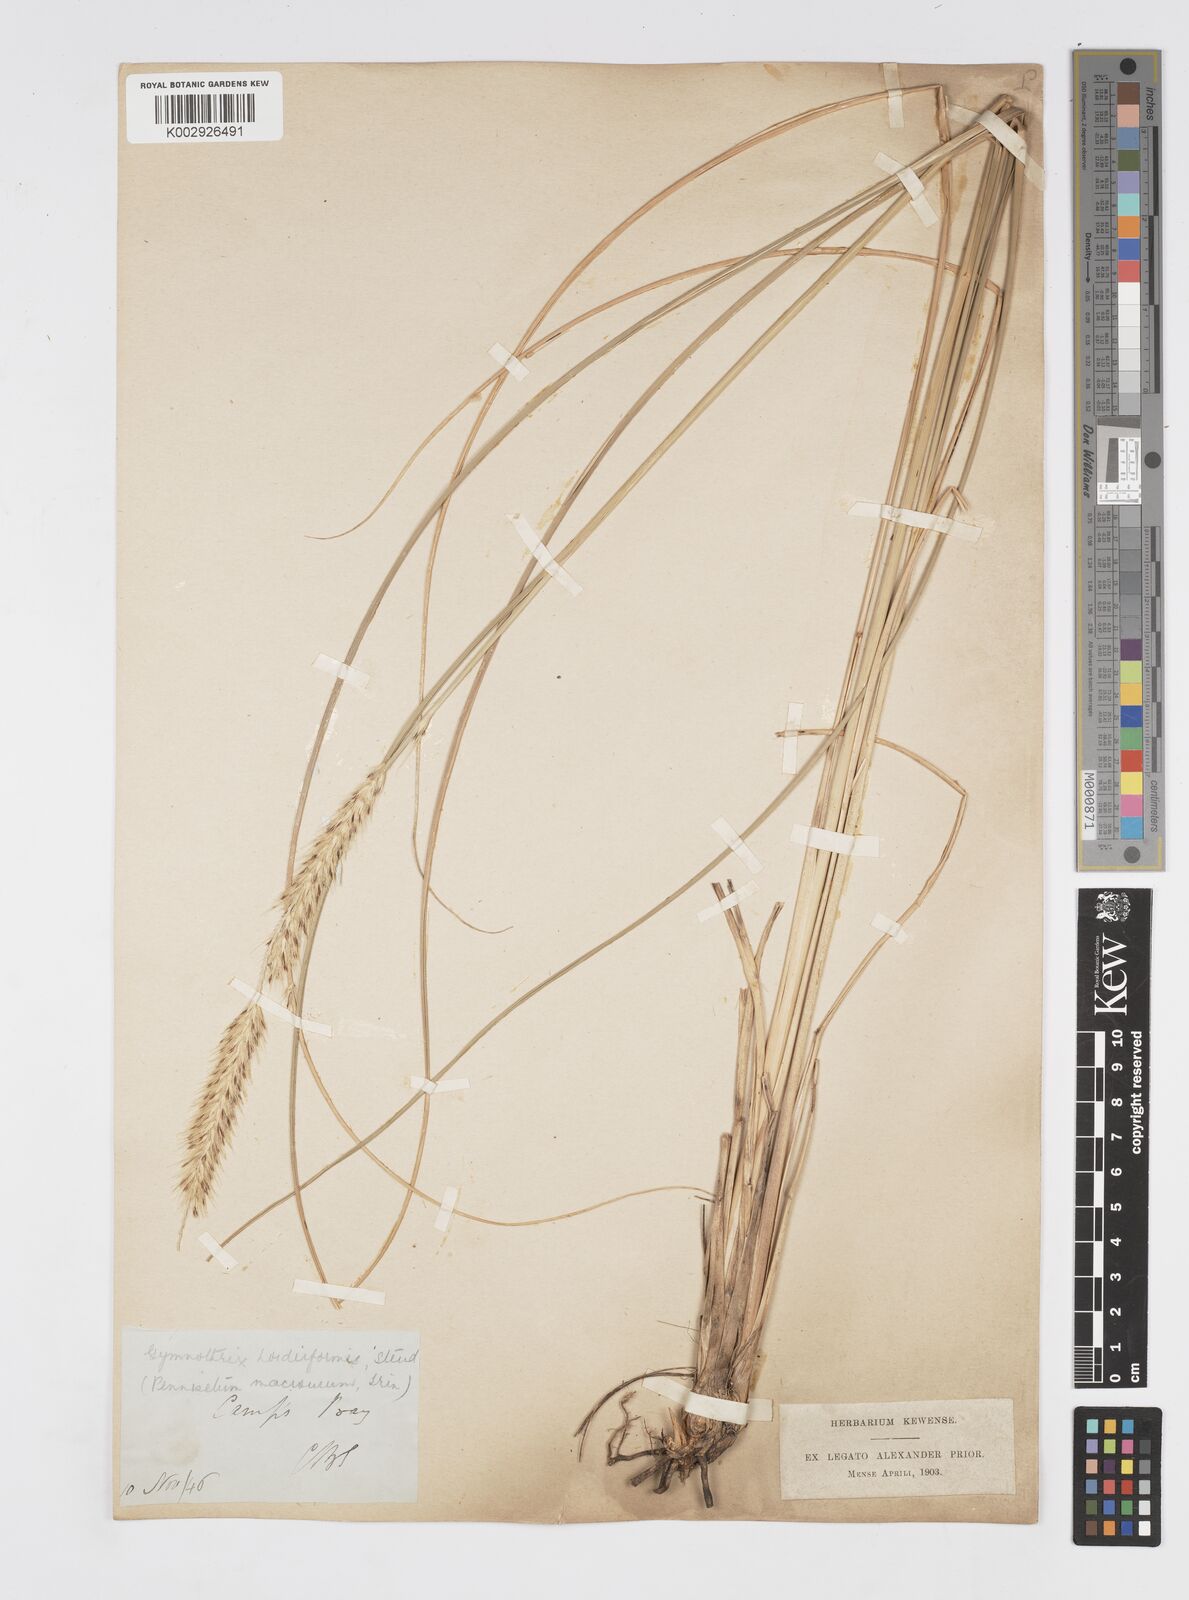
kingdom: Plantae
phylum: Tracheophyta
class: Liliopsida
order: Poales
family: Poaceae
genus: Cenchrus
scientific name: Cenchrus caudatus
